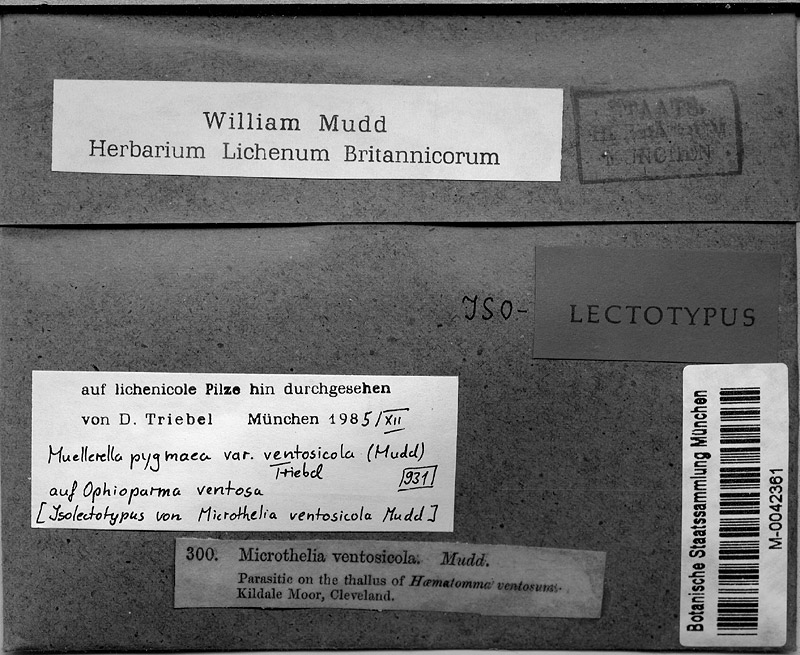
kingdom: Fungi
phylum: Ascomycota
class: Eurotiomycetes
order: Verrucariales
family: Verrucariaceae
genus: Muellerella
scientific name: Muellerella ventosicola
